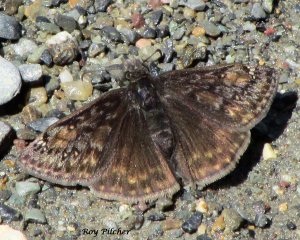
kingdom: Animalia
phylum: Arthropoda
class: Insecta
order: Lepidoptera
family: Hesperiidae
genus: Gesta
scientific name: Gesta
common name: Juvenal's Duskywing
